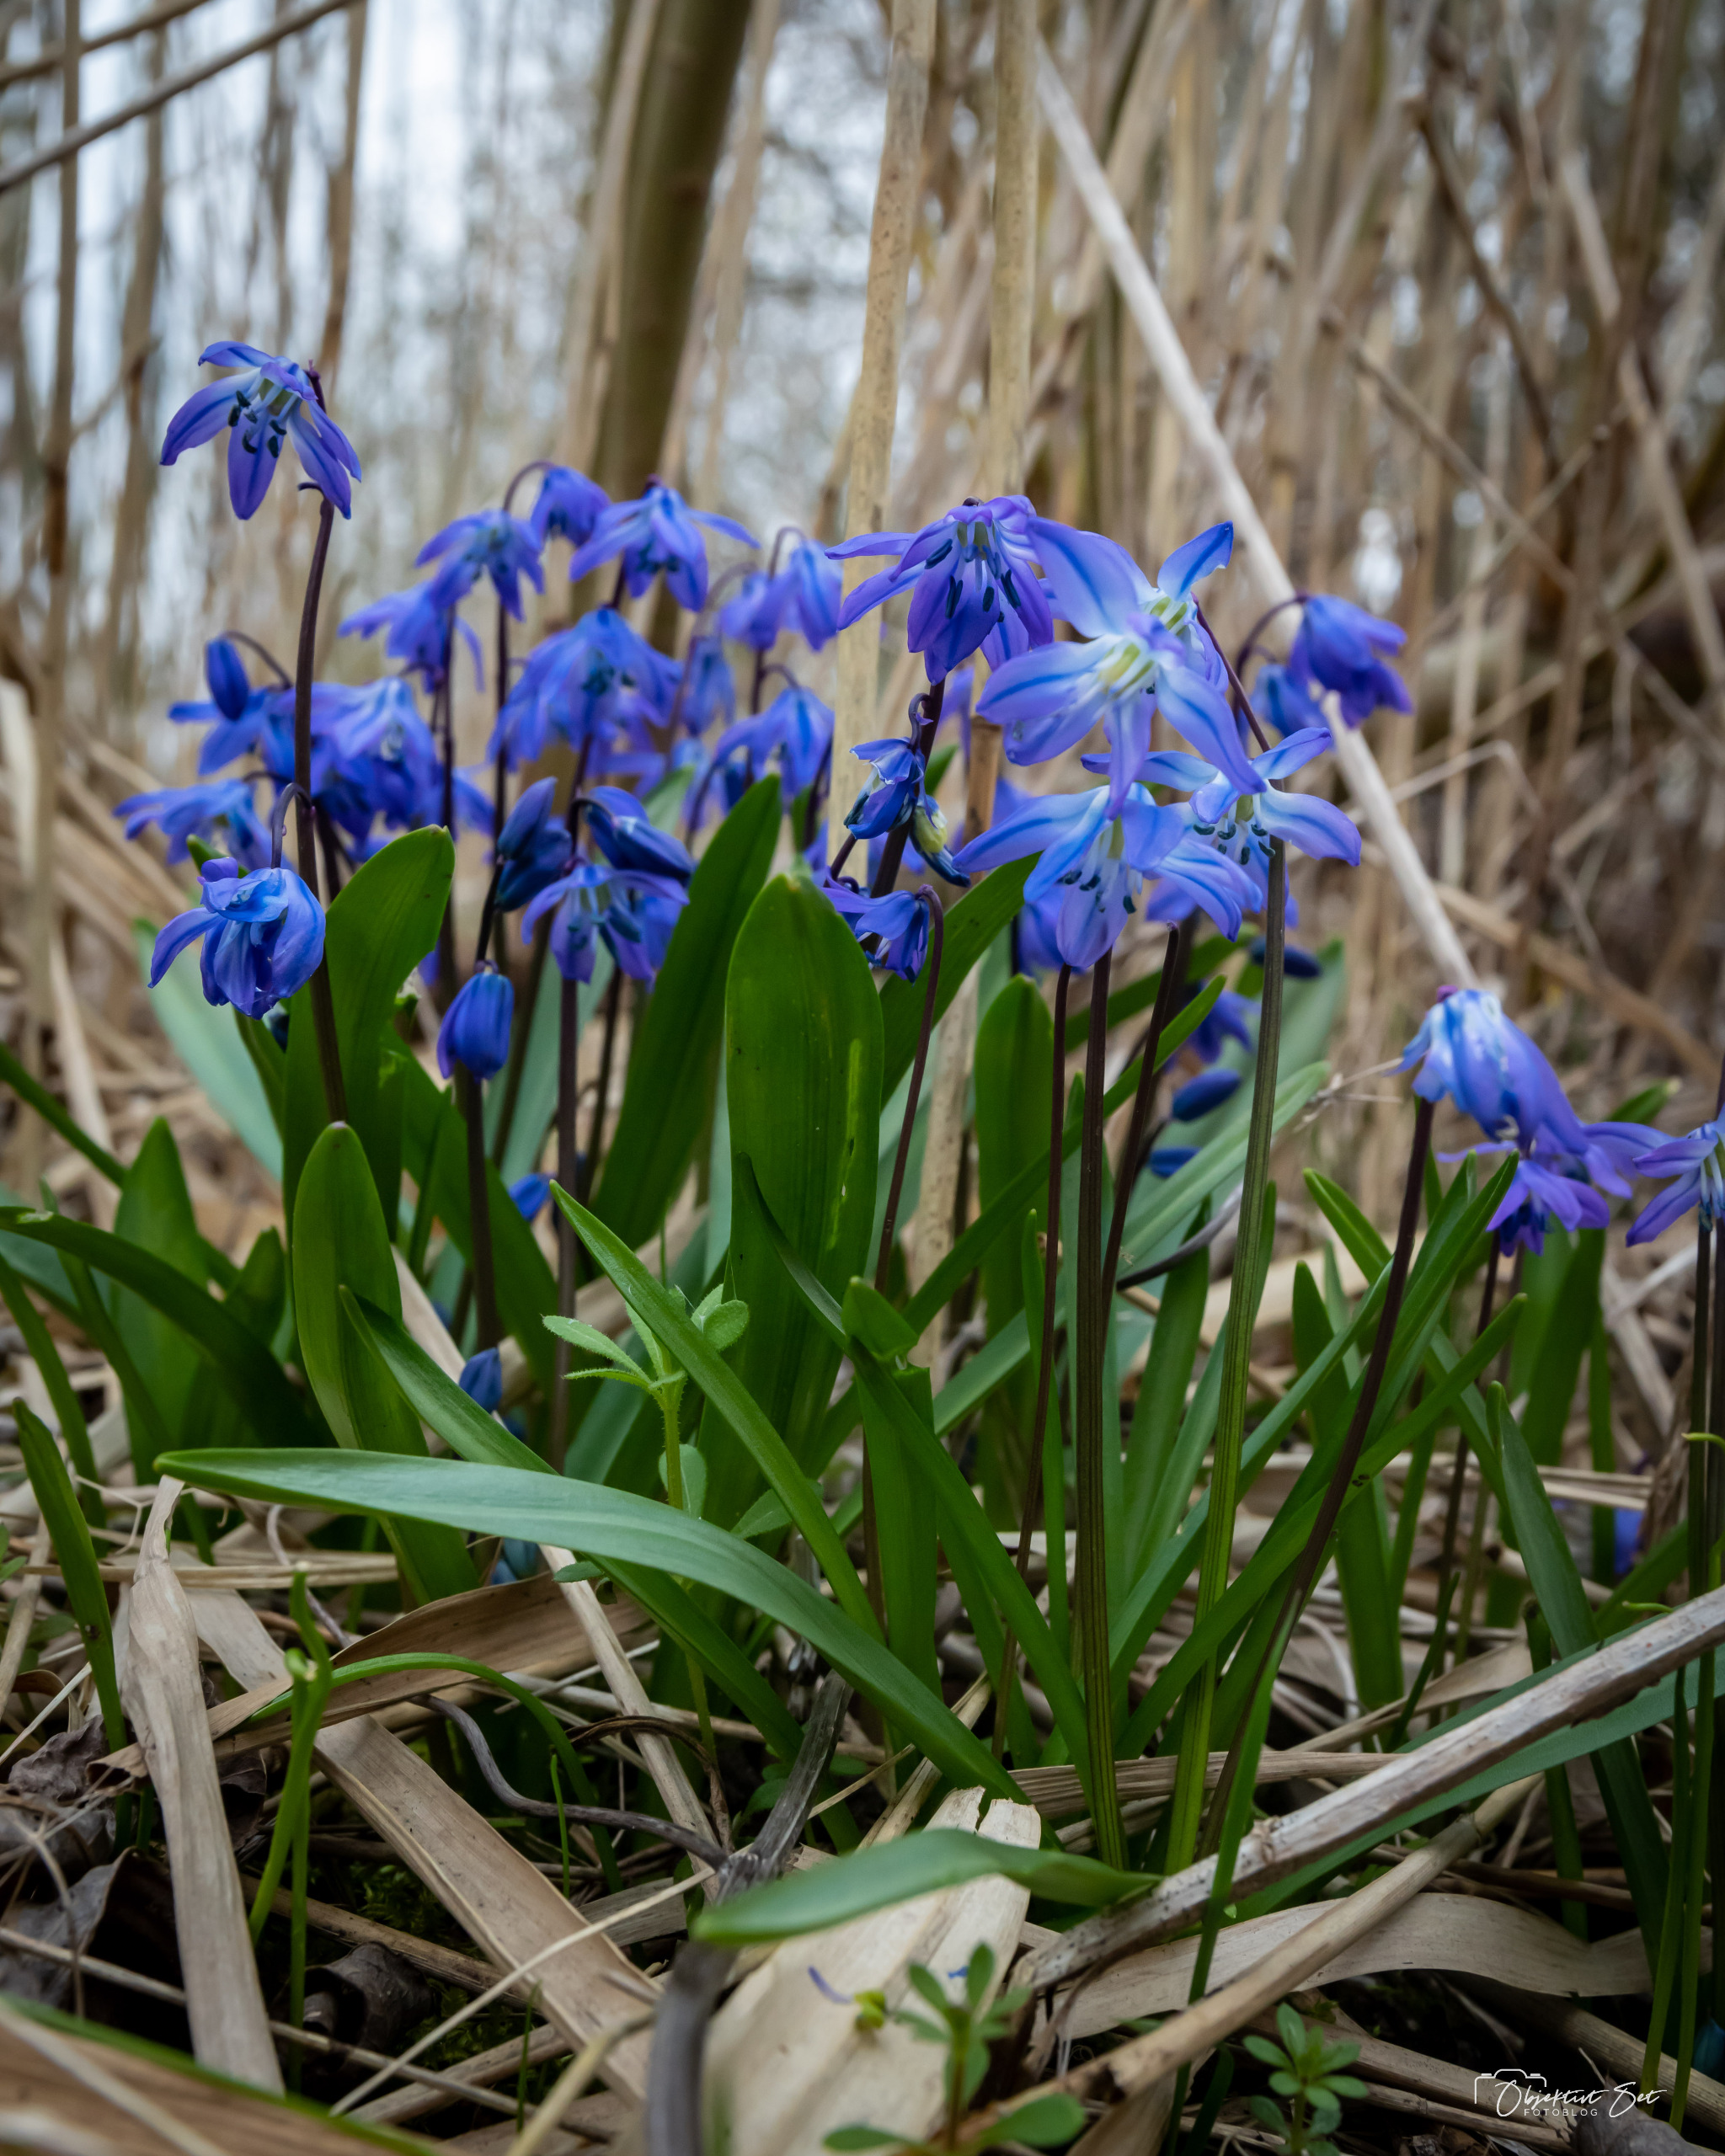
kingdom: Plantae
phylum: Tracheophyta
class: Liliopsida
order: Asparagales
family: Asparagaceae
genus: Scilla
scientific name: Scilla siberica
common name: Russisk skilla
